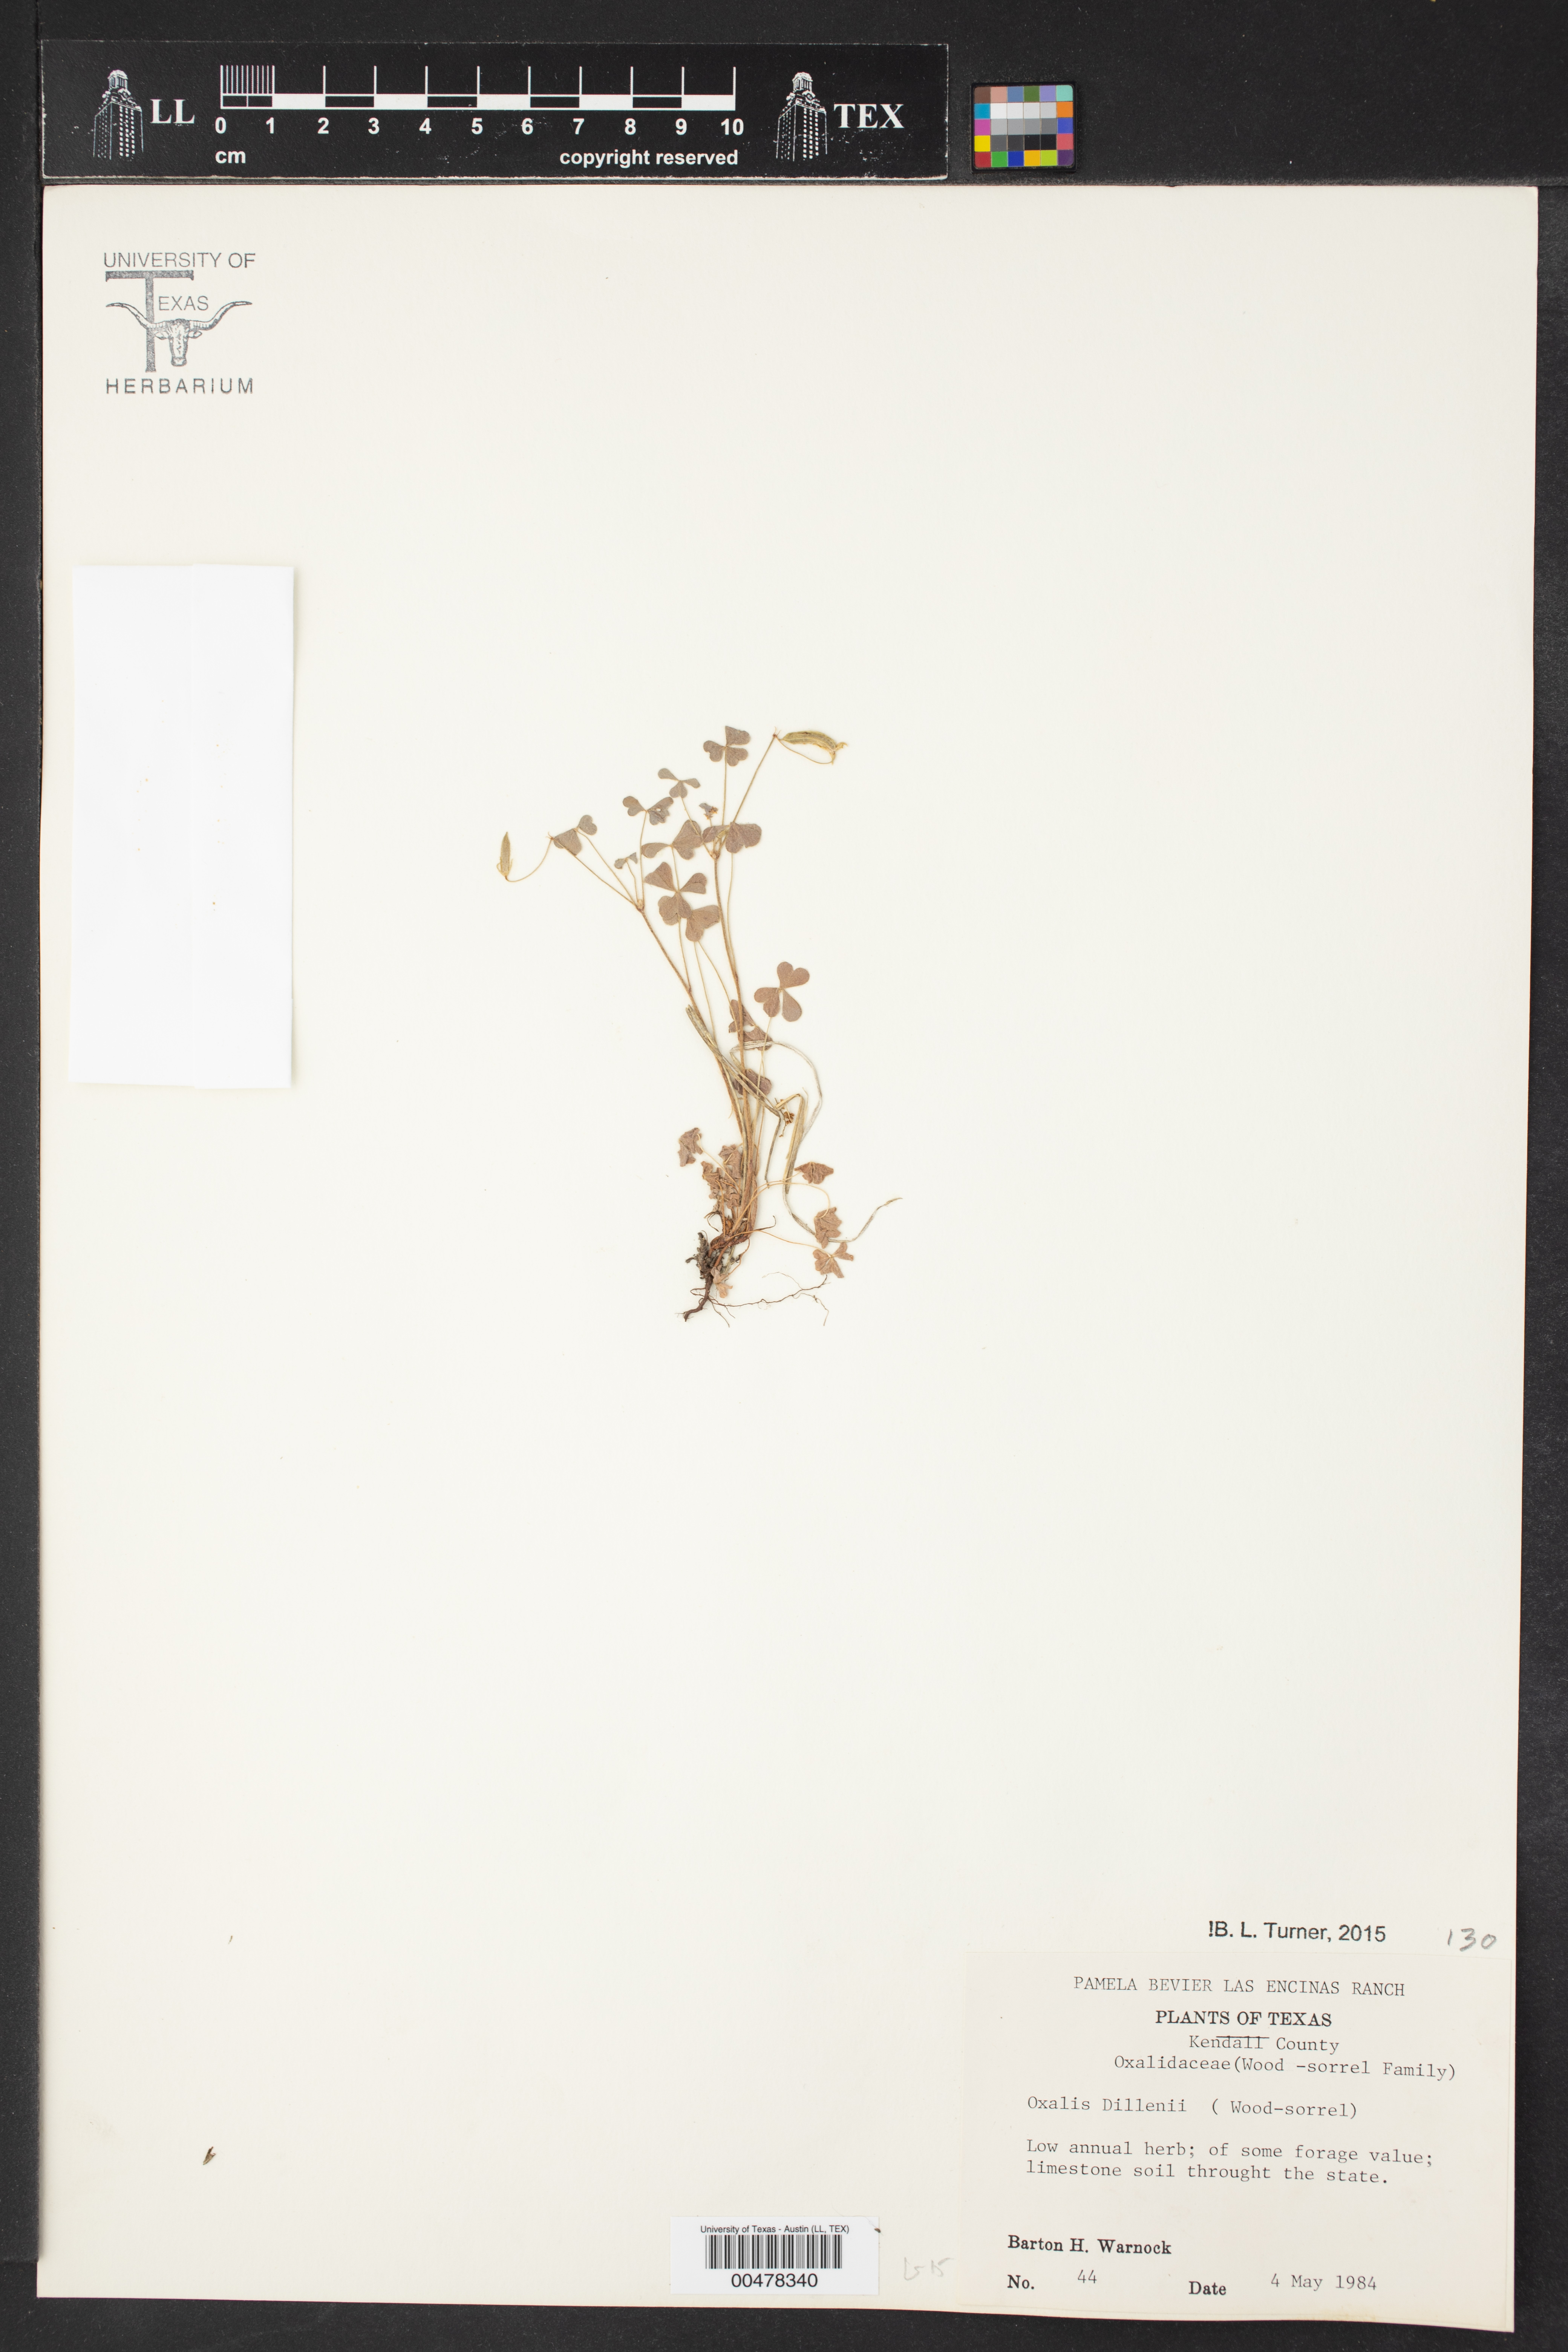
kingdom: Plantae
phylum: Tracheophyta
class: Magnoliopsida
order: Oxalidales
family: Oxalidaceae
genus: Oxalis
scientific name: Oxalis dillenii
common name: Sussex yellow-sorrel
